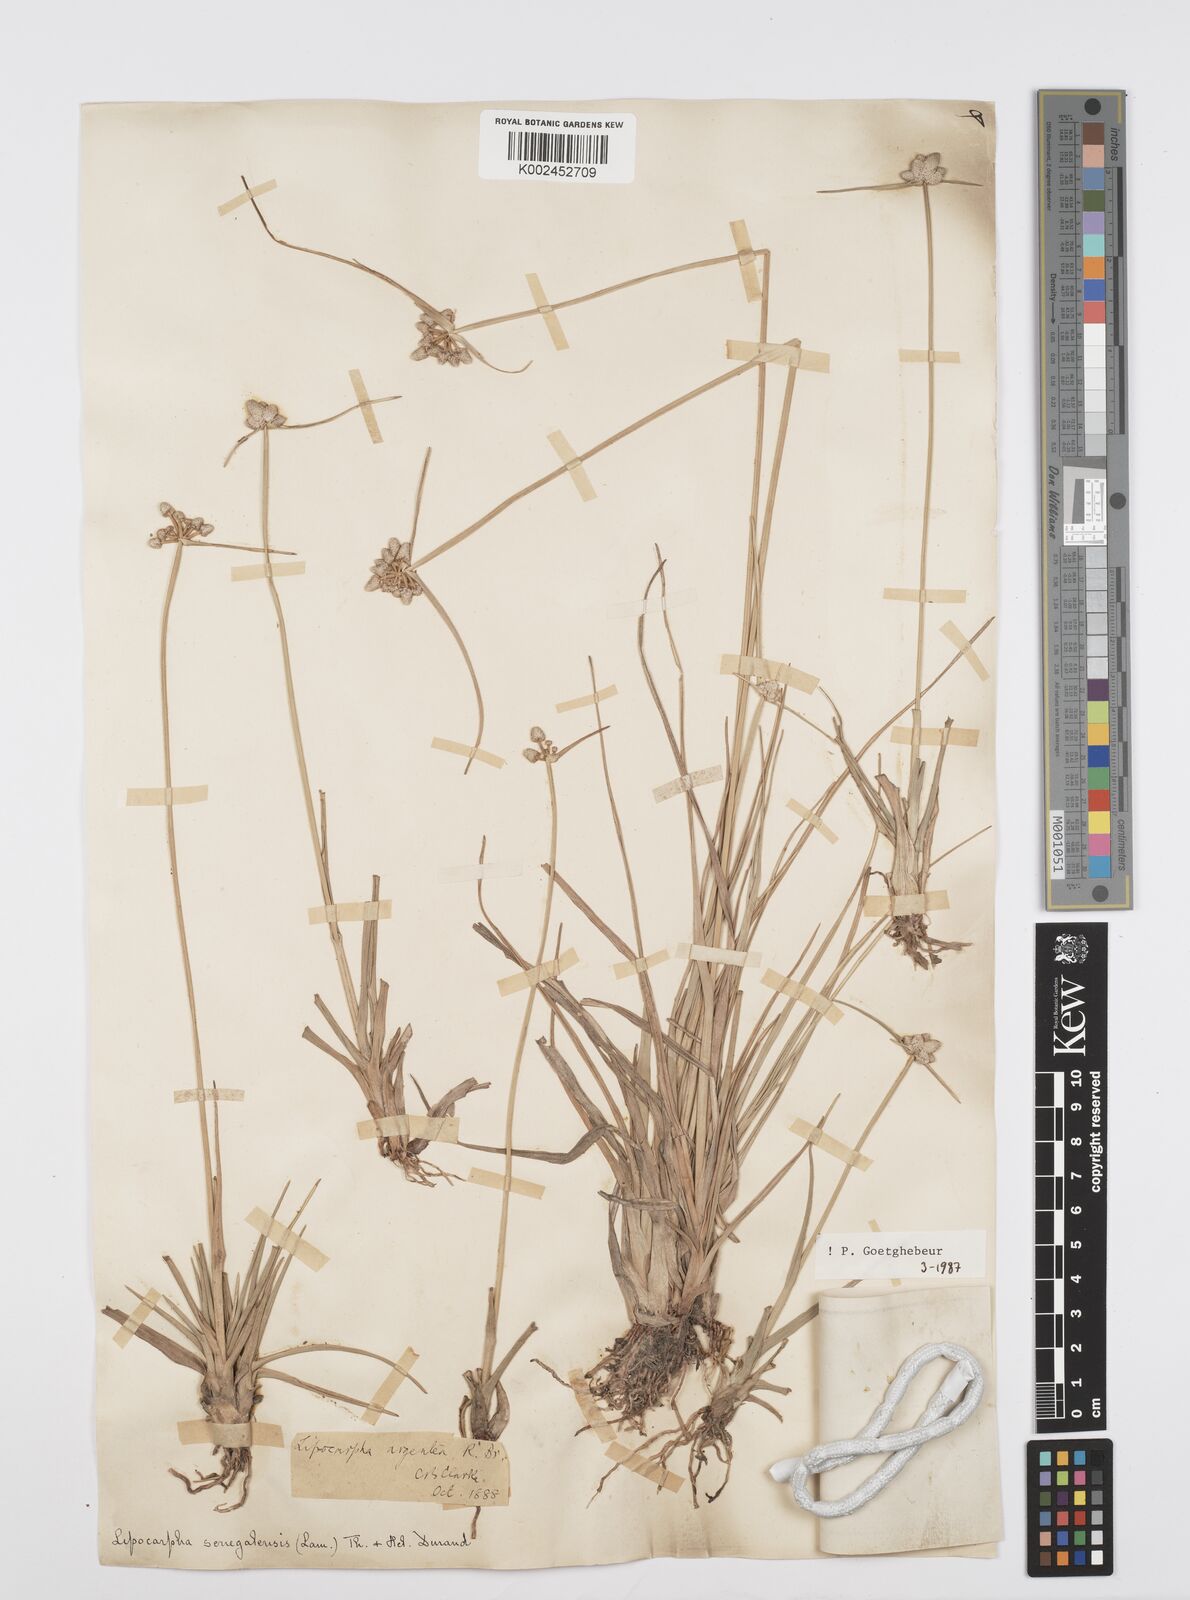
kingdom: Plantae
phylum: Tracheophyta
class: Liliopsida
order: Poales
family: Cyperaceae
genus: Cyperus
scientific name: Cyperus albescens
